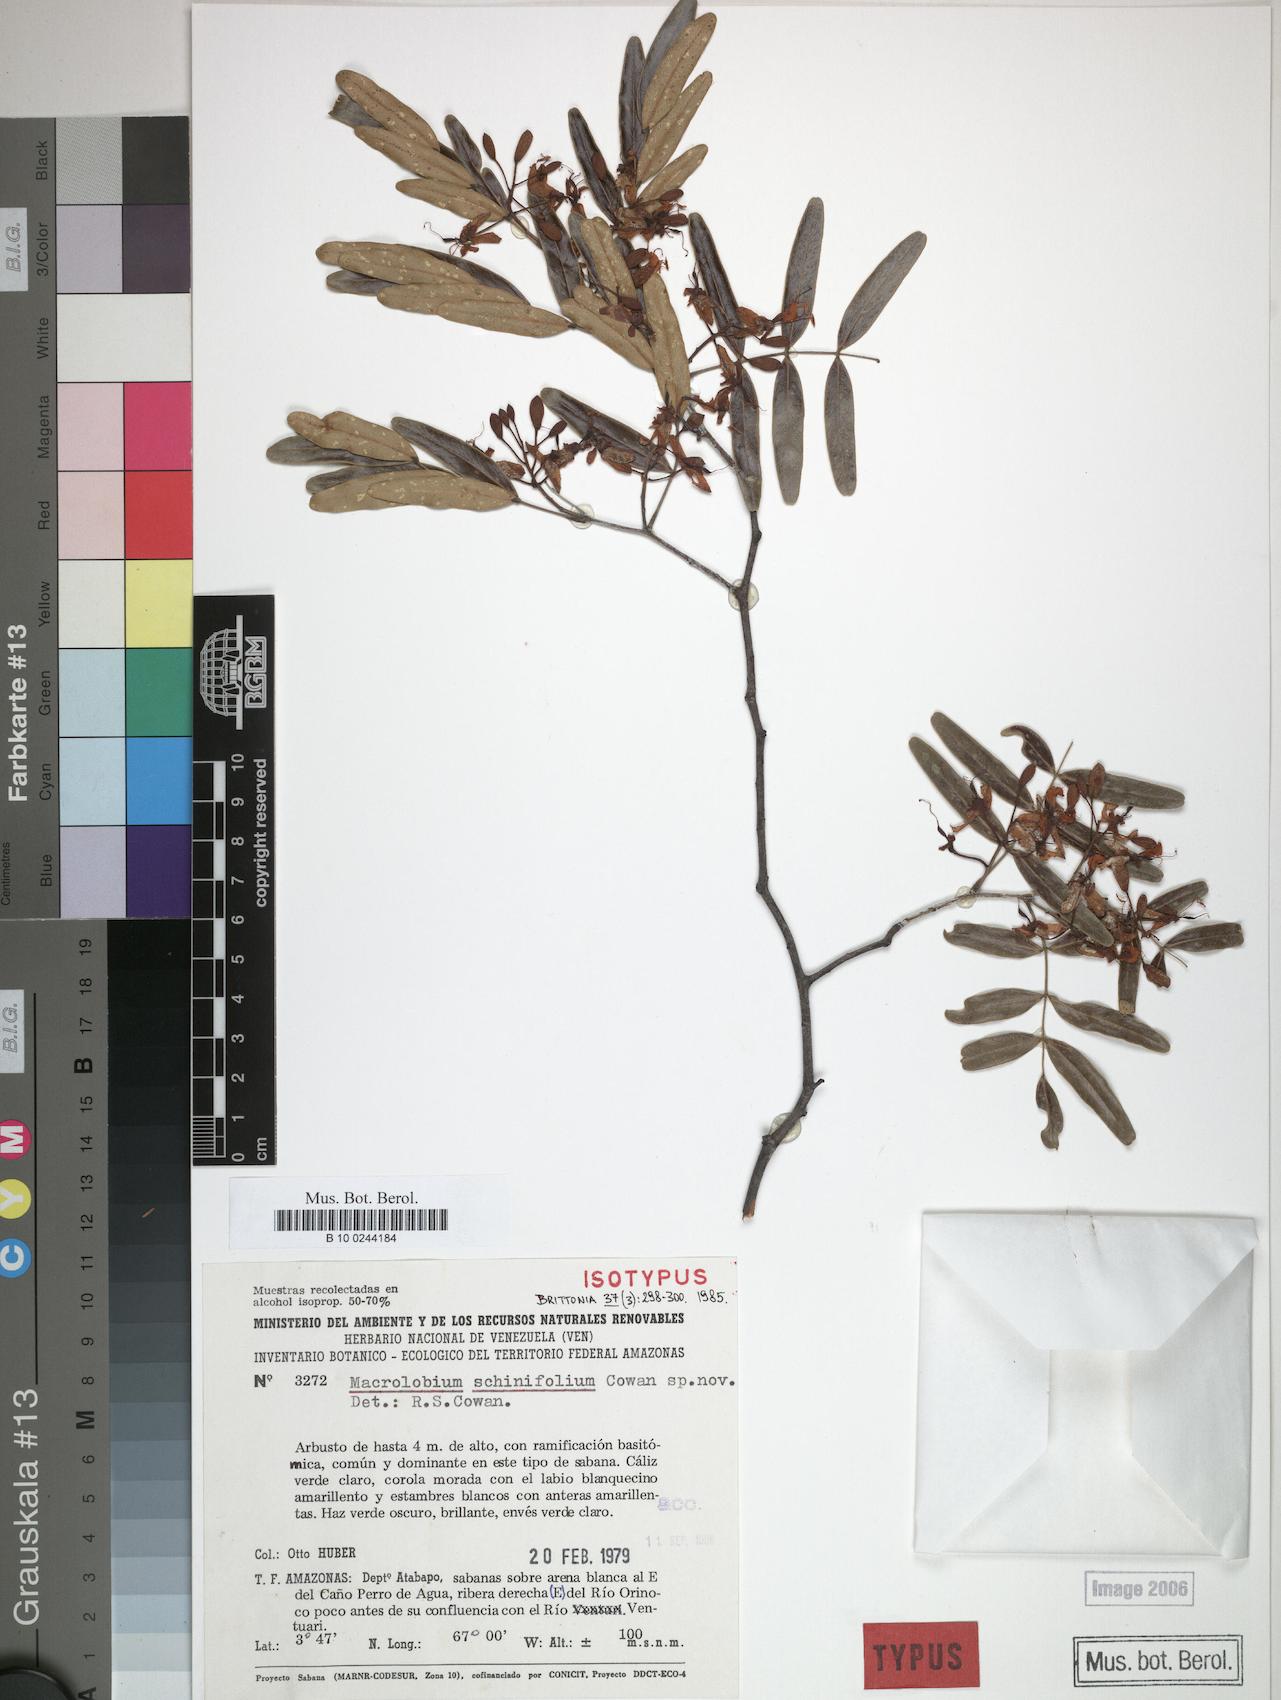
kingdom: Plantae
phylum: Tracheophyta
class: Magnoliopsida
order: Fabales
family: Fabaceae
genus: Macrolobium
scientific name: Macrolobium schinifolium
